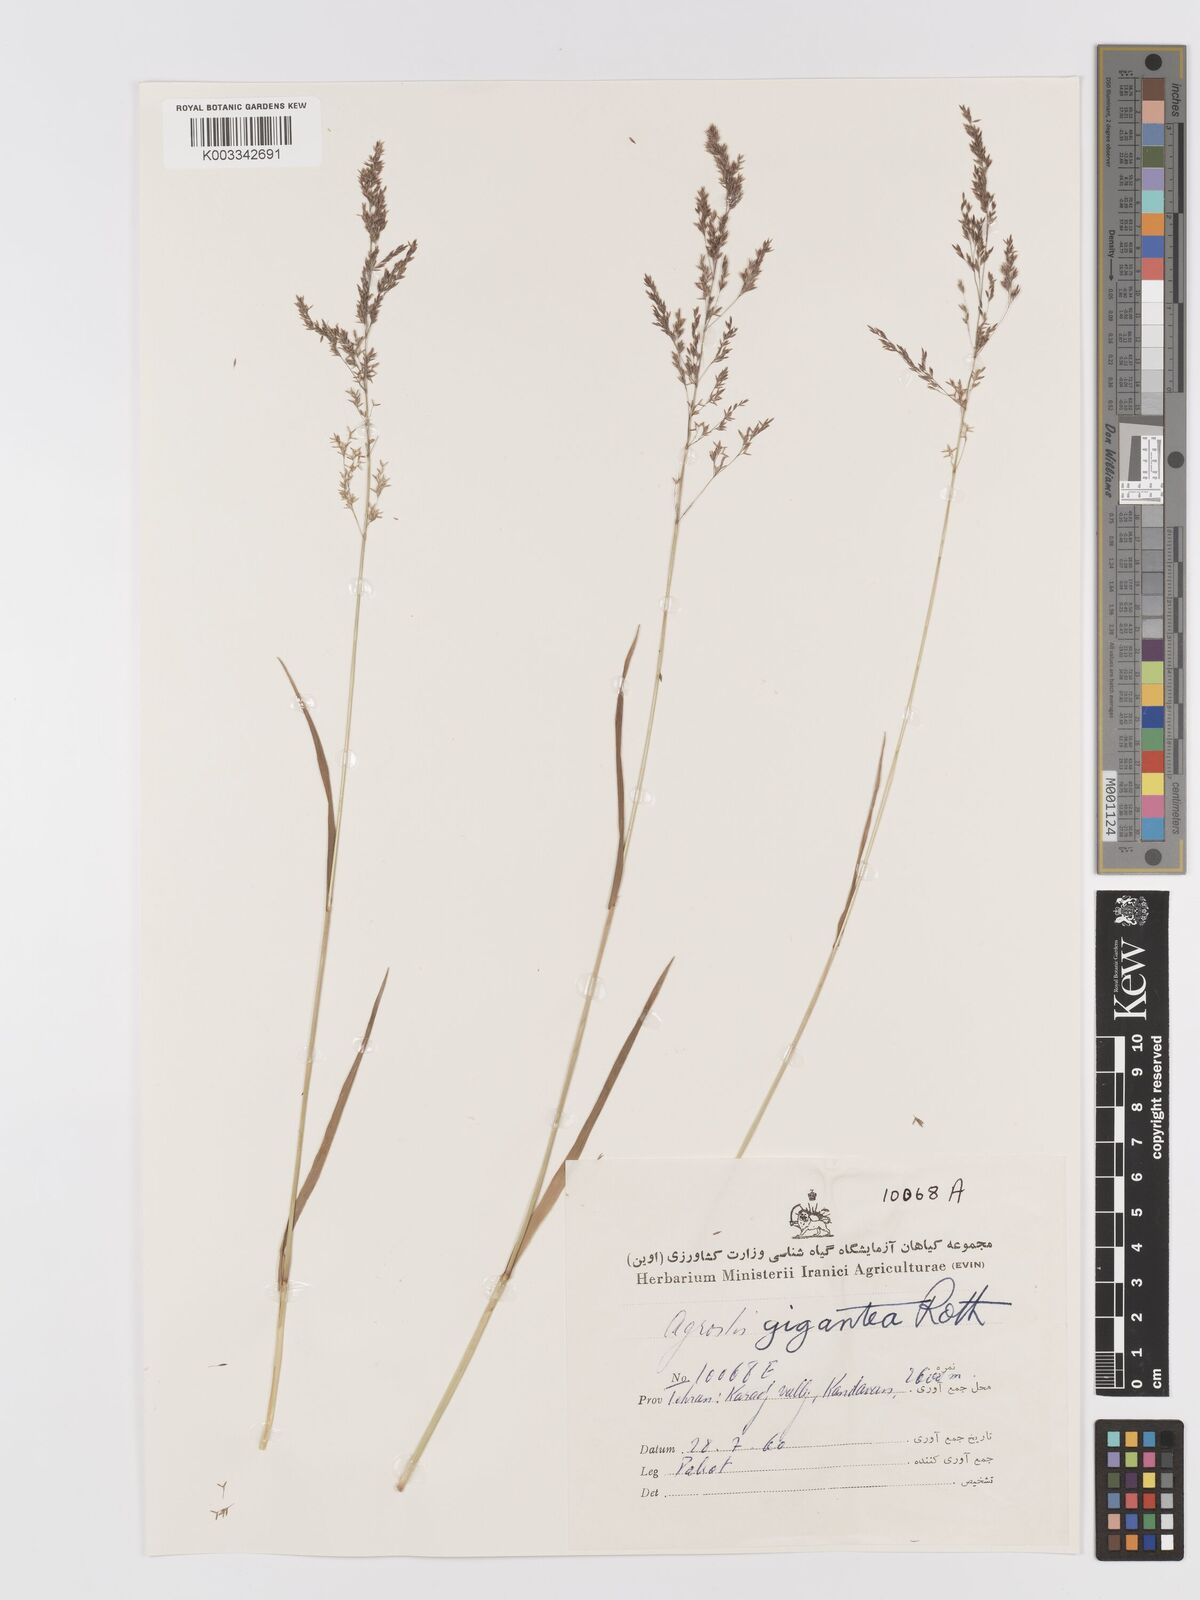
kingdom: Plantae
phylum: Tracheophyta
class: Liliopsida
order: Poales
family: Poaceae
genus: Agrostis
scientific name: Agrostis gigantea
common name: Black bent
